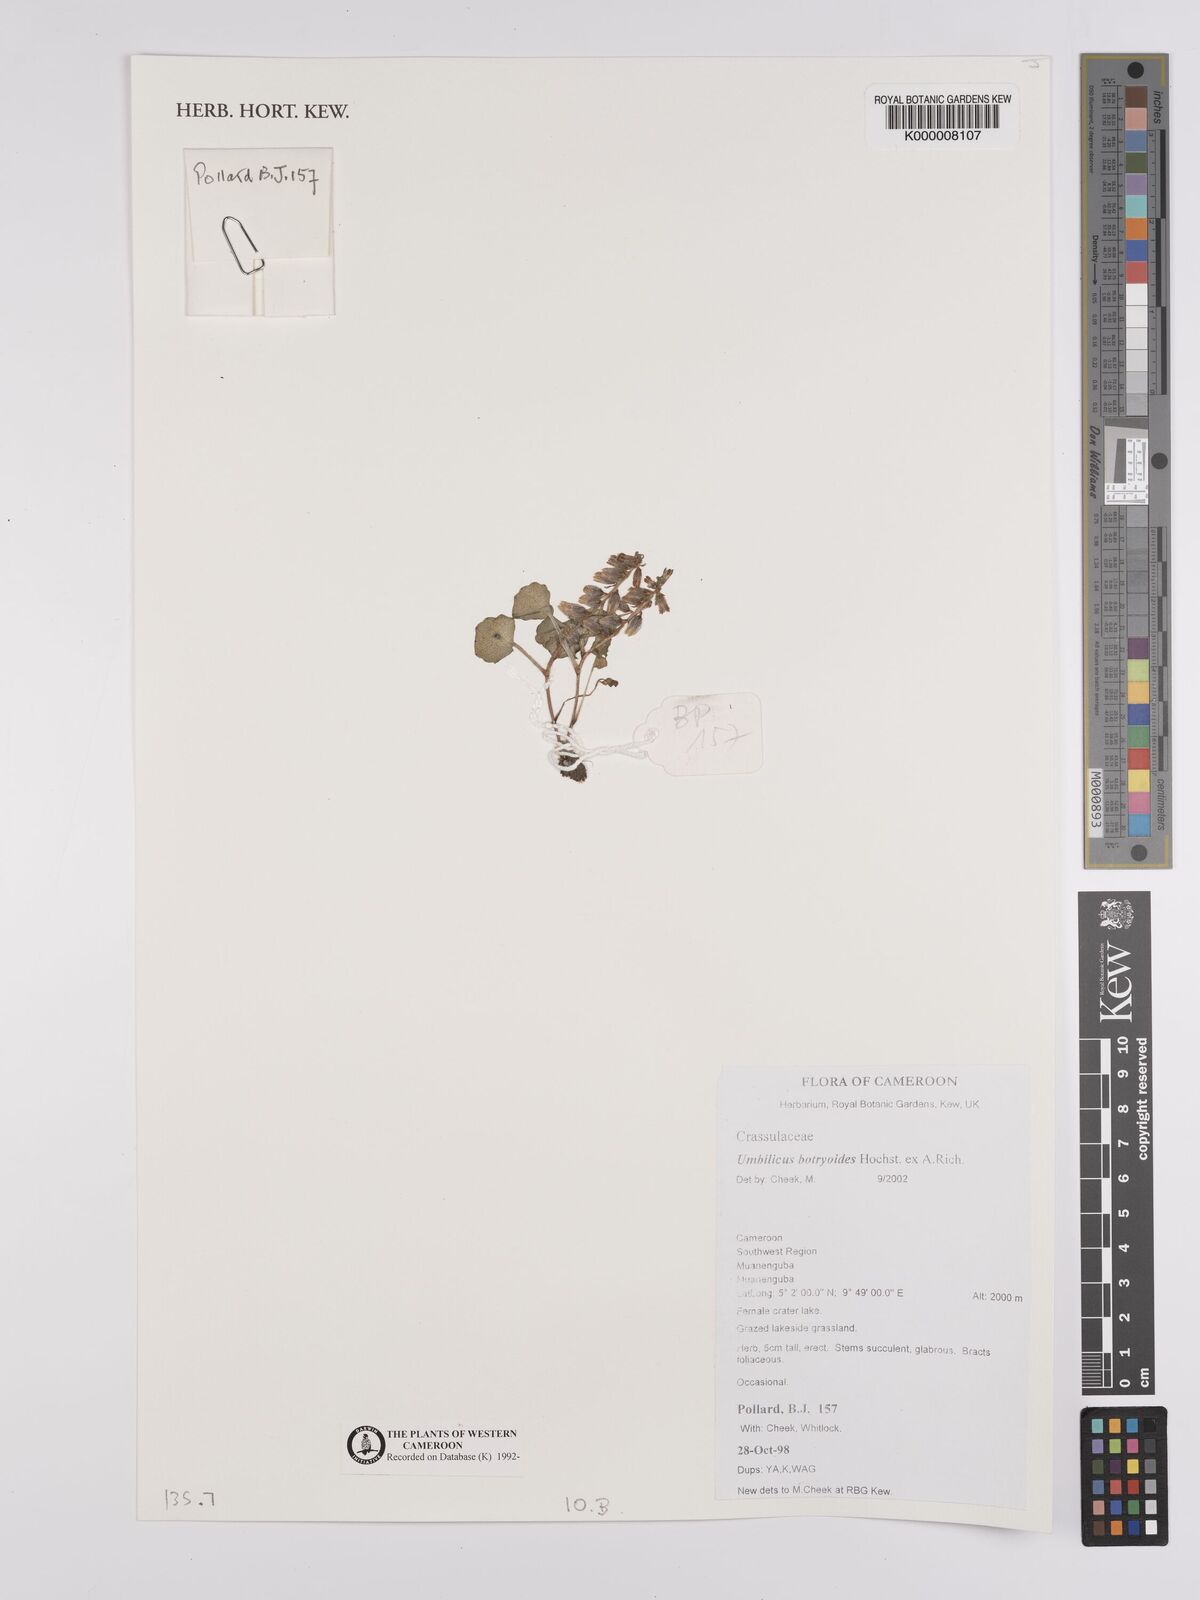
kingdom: Plantae
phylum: Tracheophyta
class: Magnoliopsida
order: Saxifragales
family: Crassulaceae
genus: Umbilicus
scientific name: Umbilicus botryoides
